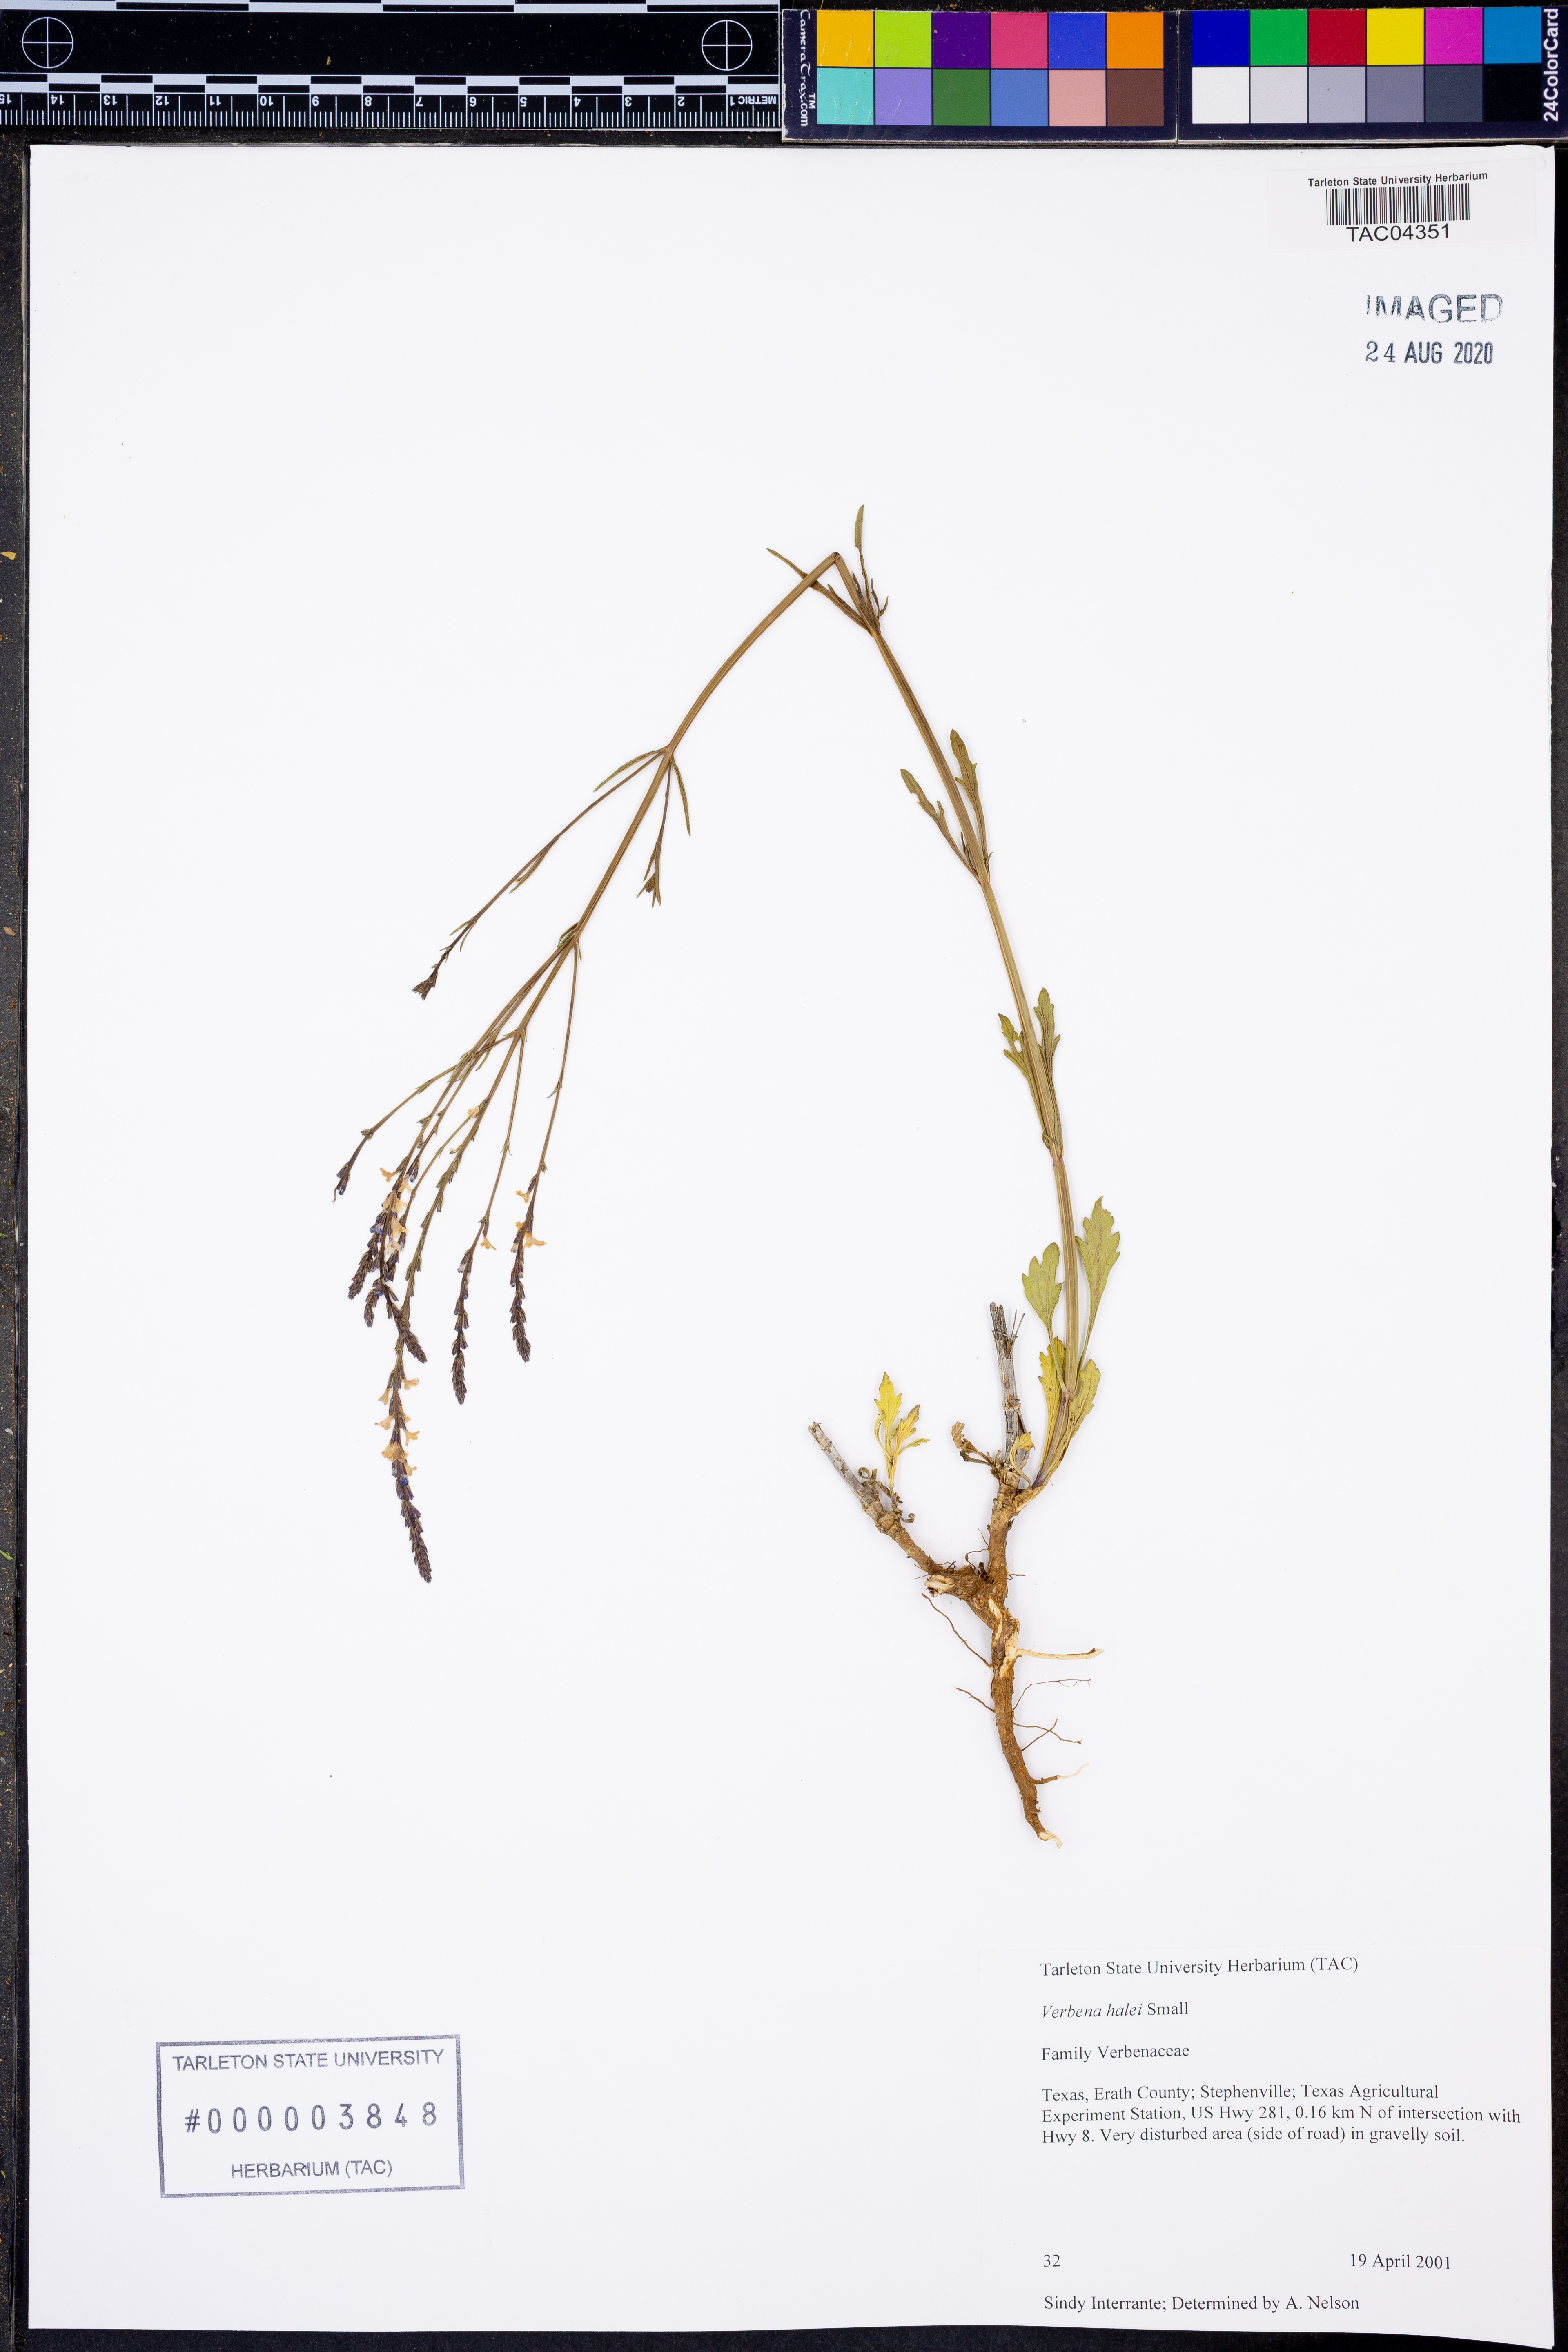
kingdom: Plantae
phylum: Tracheophyta
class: Magnoliopsida
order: Lamiales
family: Verbenaceae
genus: Verbena
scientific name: Verbena halei
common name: Texas vervain
